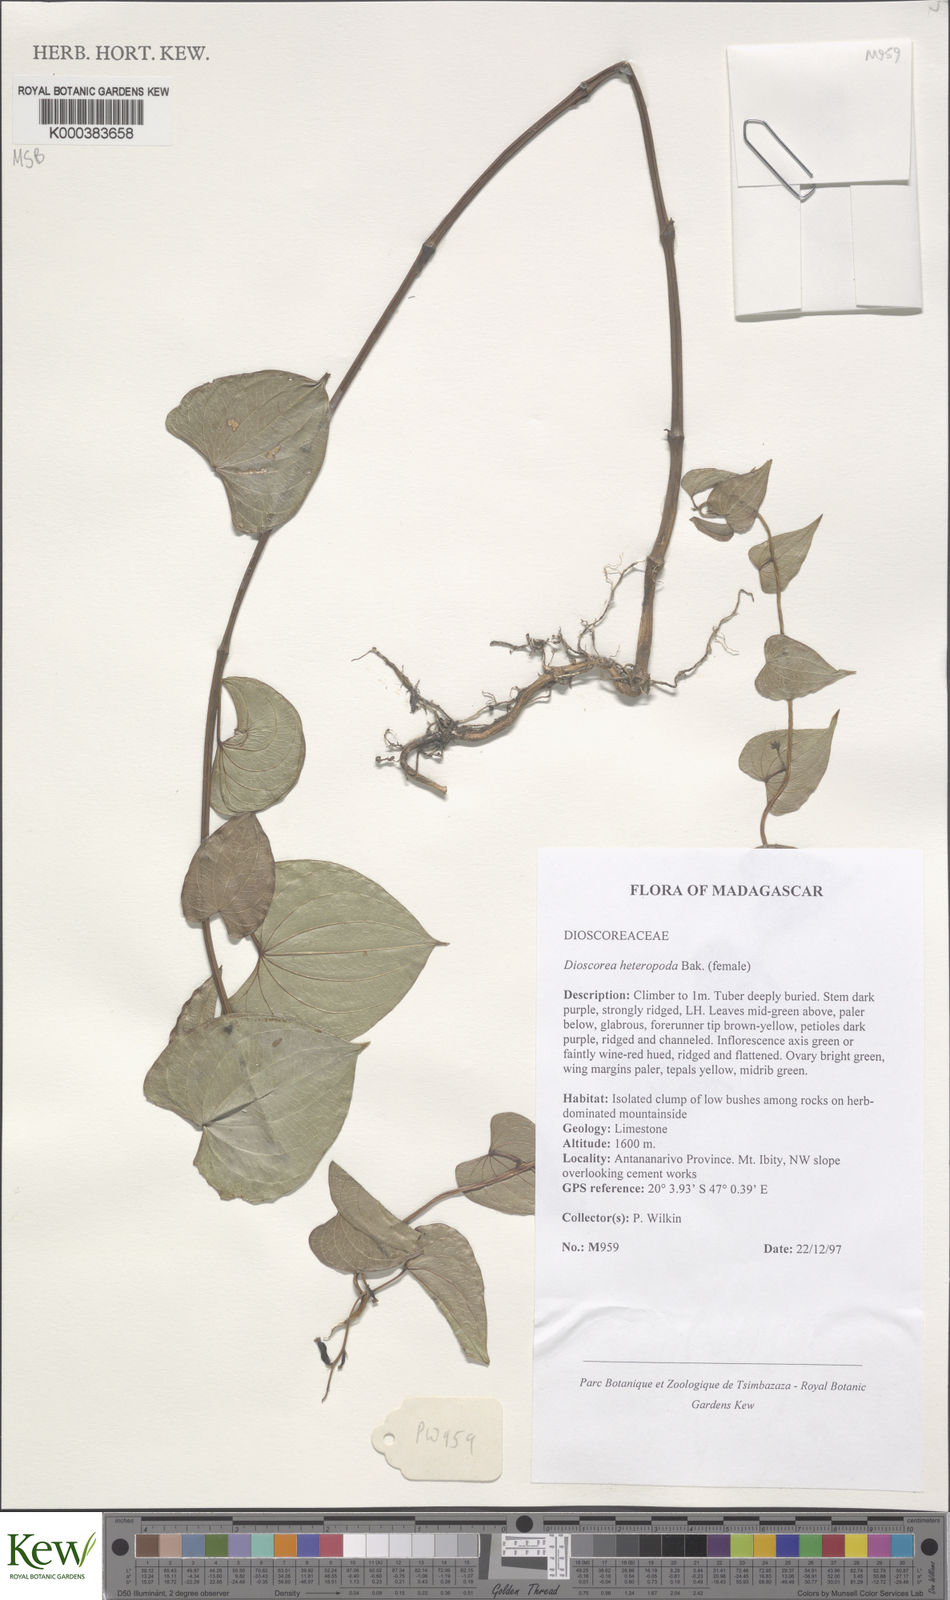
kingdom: Plantae
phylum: Tracheophyta
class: Liliopsida
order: Dioscoreales
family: Dioscoreaceae
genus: Dioscorea
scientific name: Dioscorea heteropoda
